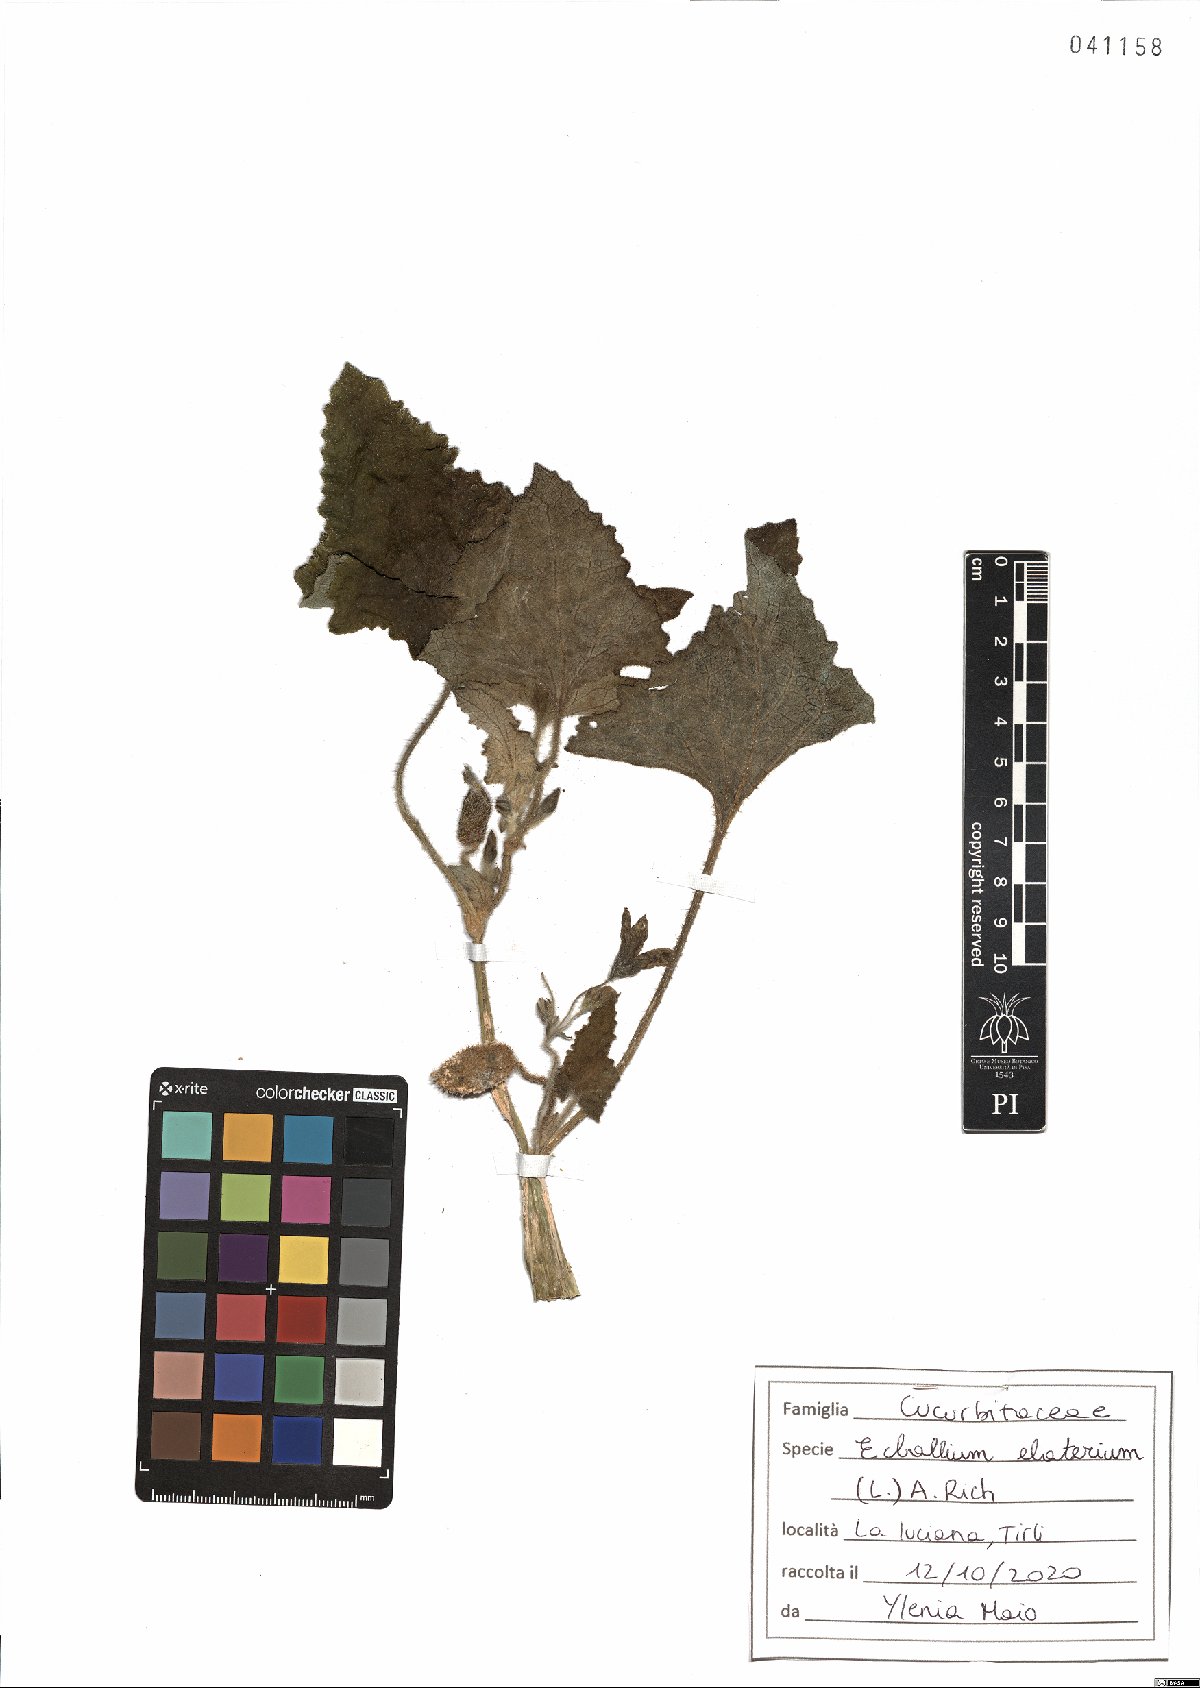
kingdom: Plantae
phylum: Tracheophyta
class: Magnoliopsida
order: Cucurbitales
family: Cucurbitaceae
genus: Ecballium
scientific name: Ecballium elaterium
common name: Squirting cucumber
